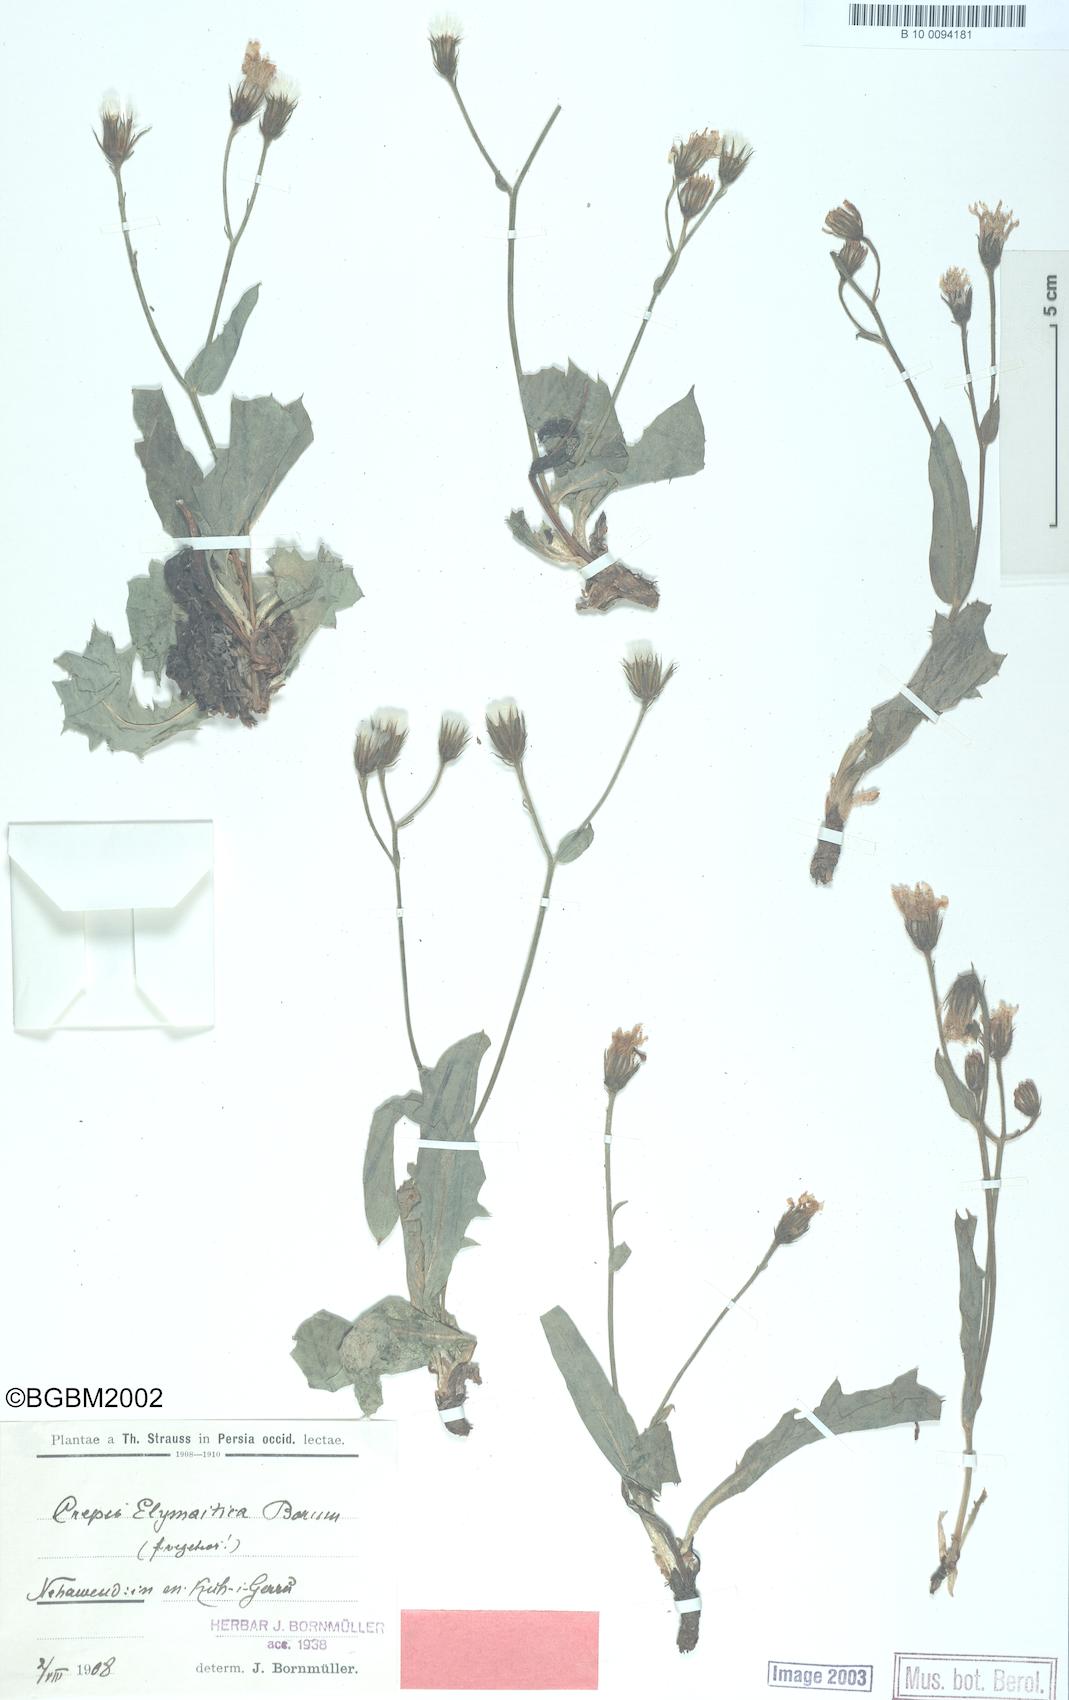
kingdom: Plantae
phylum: Tracheophyta
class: Magnoliopsida
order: Asterales
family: Asteraceae
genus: Crepis
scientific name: Crepis elymaitica
